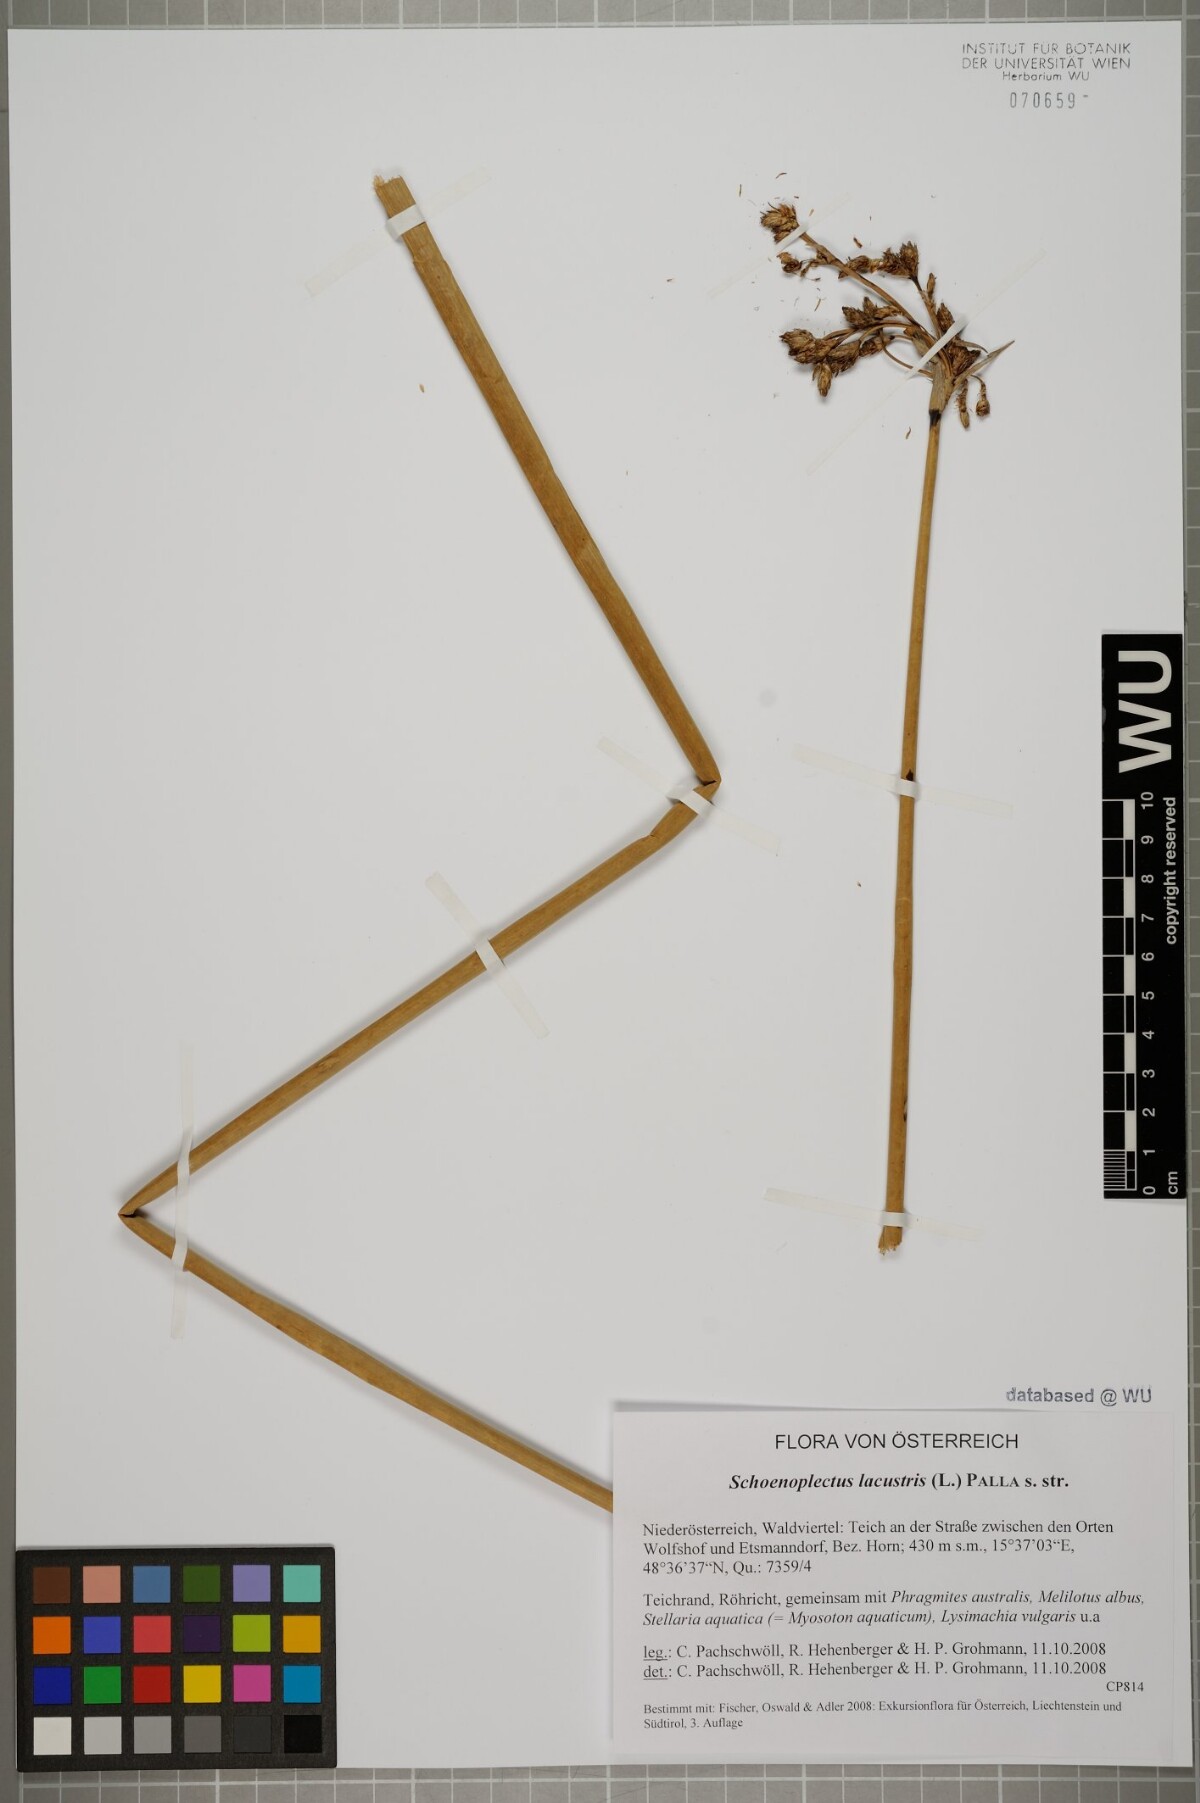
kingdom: Plantae
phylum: Tracheophyta
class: Liliopsida
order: Poales
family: Cyperaceae
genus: Schoenoplectus
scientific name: Schoenoplectus lacustris
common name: Common club-rush
